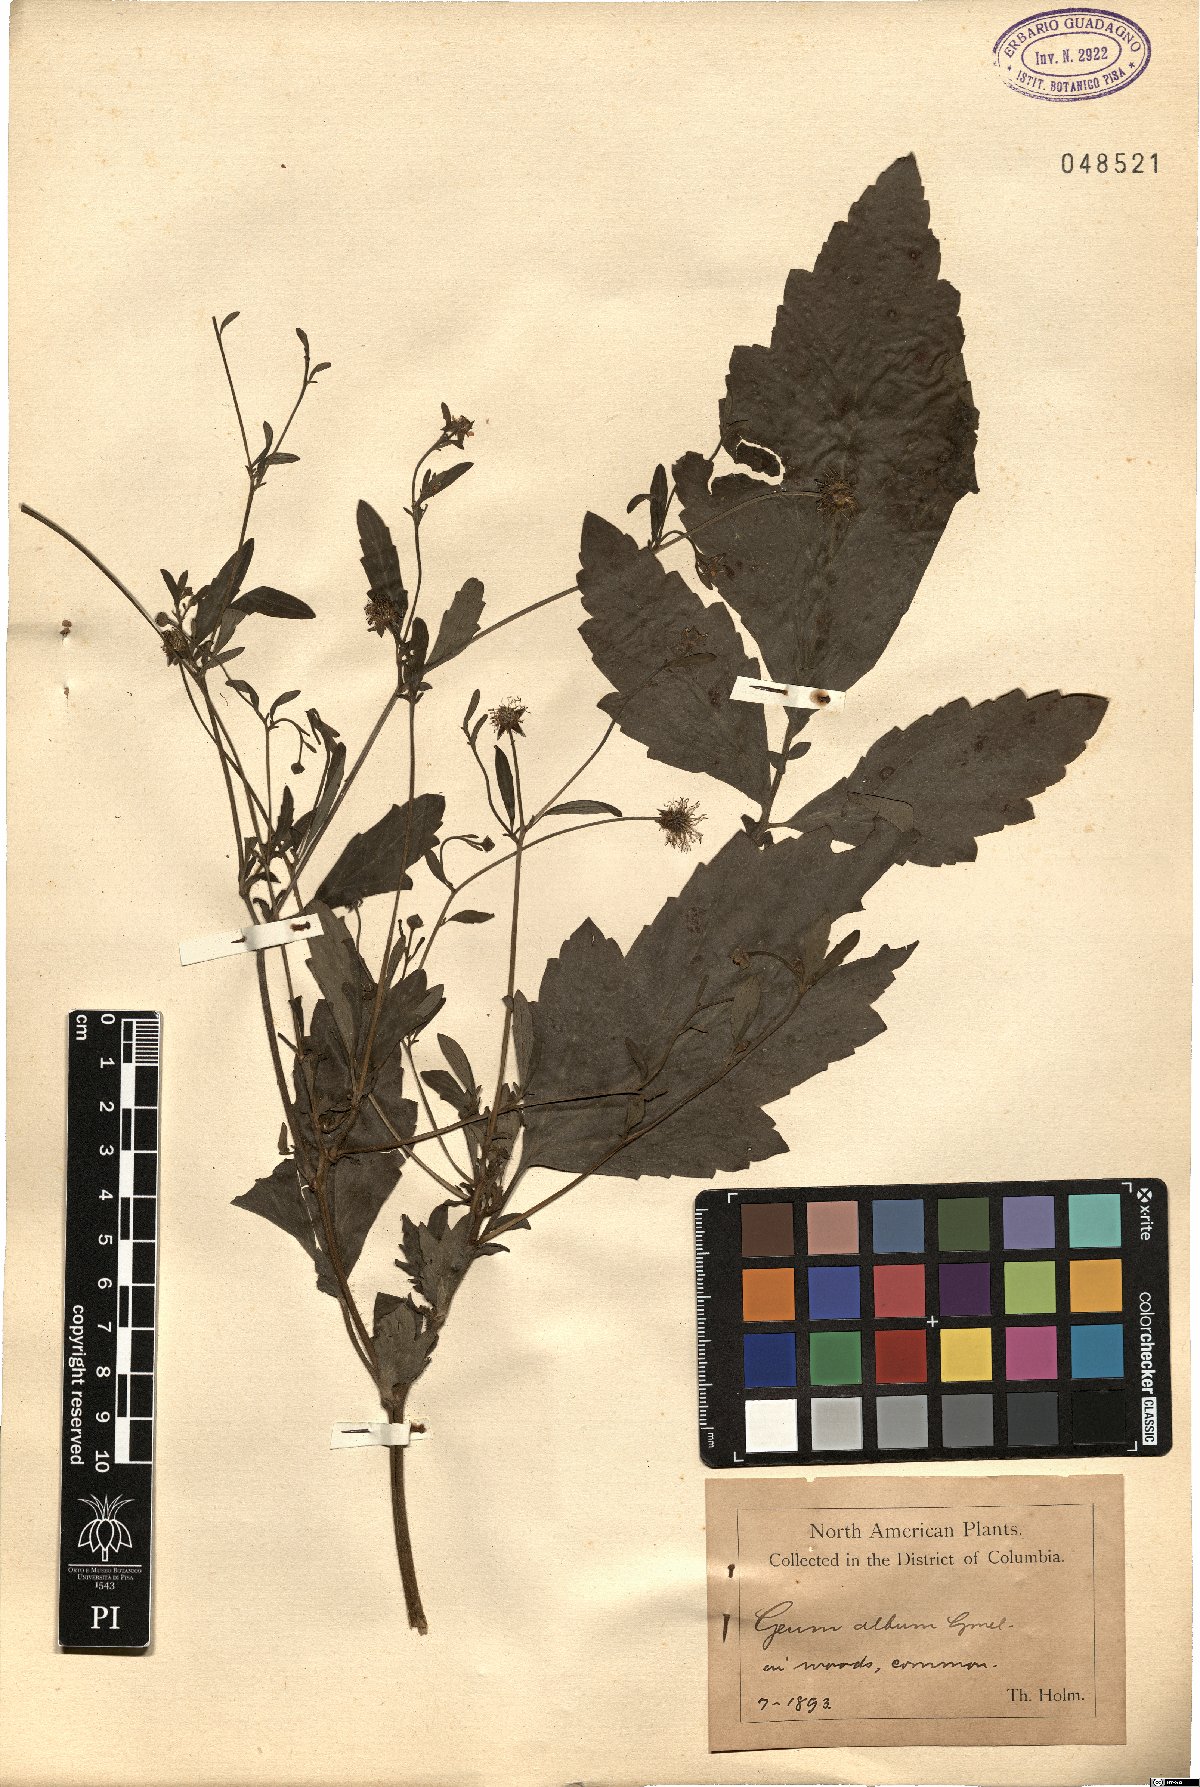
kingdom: Plantae
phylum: Tracheophyta
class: Magnoliopsida
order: Rosales
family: Rosaceae
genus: Geum
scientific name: Geum canadense
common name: White avens
